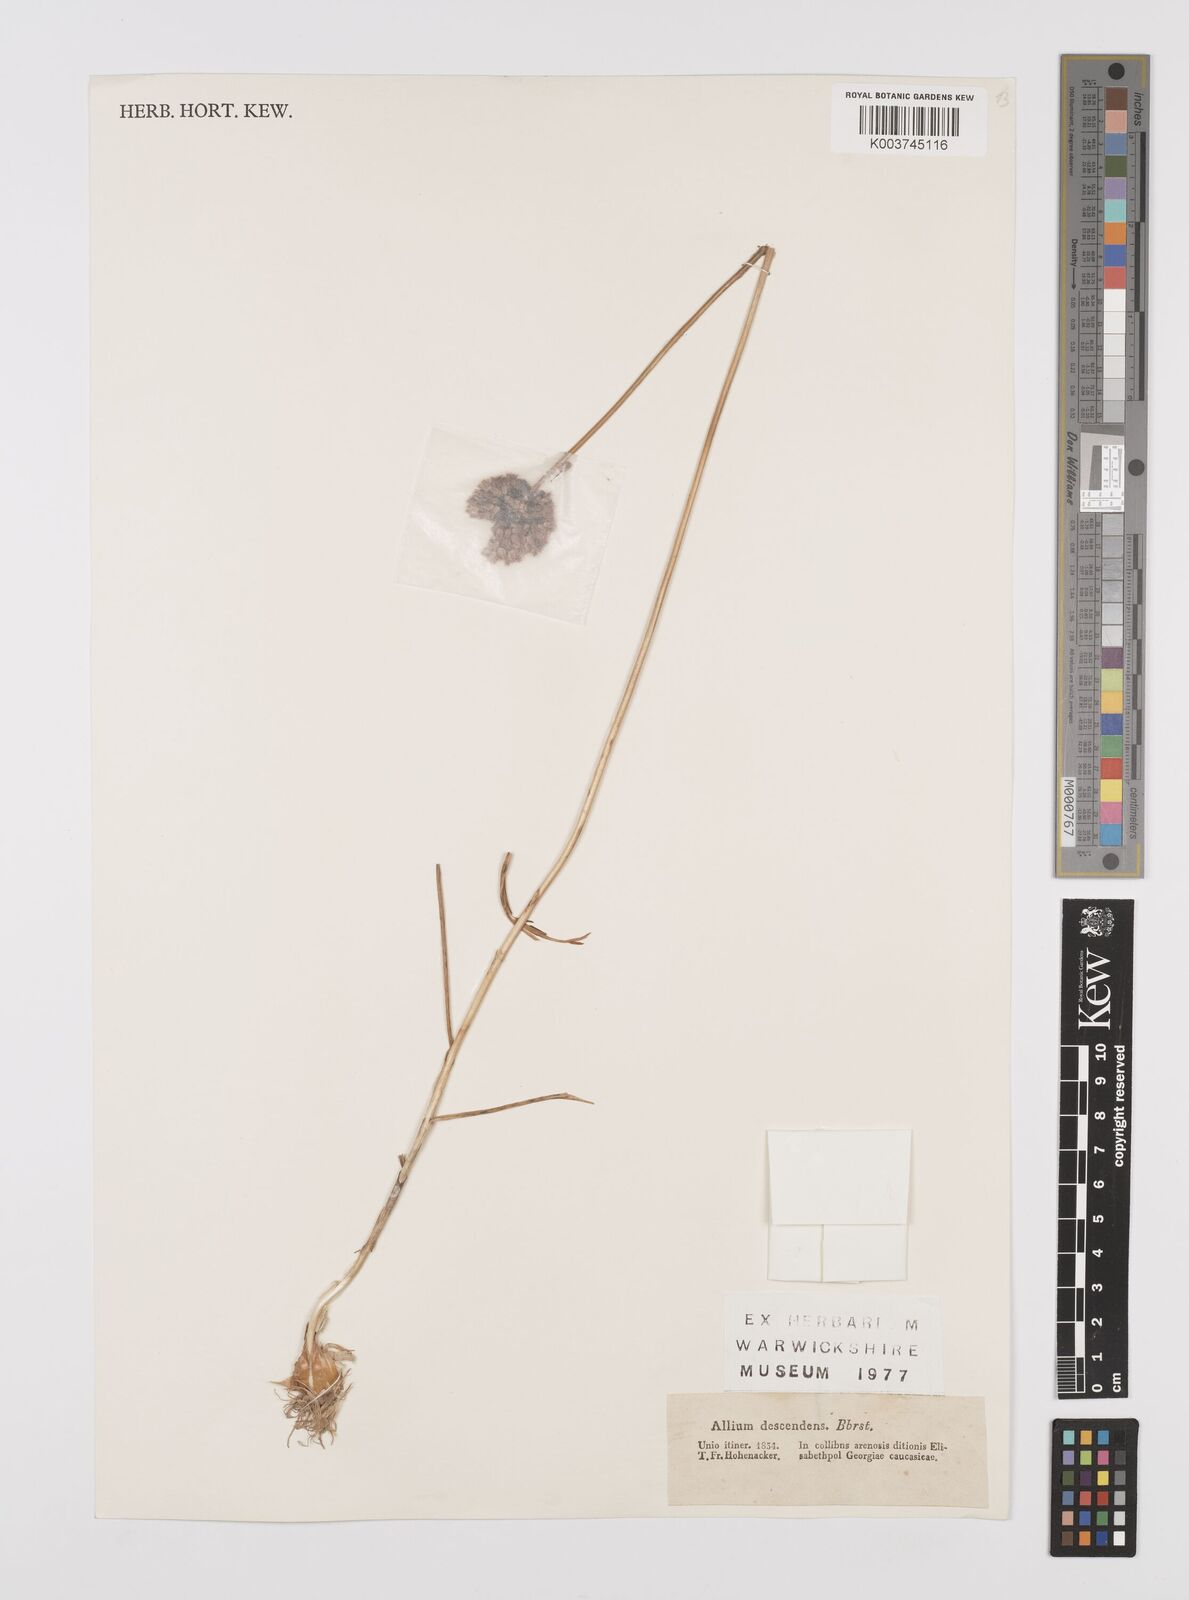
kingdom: Plantae
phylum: Tracheophyta
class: Liliopsida
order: Asparagales
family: Amaryllidaceae
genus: Allium
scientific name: Allium vineale
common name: Crow garlic
